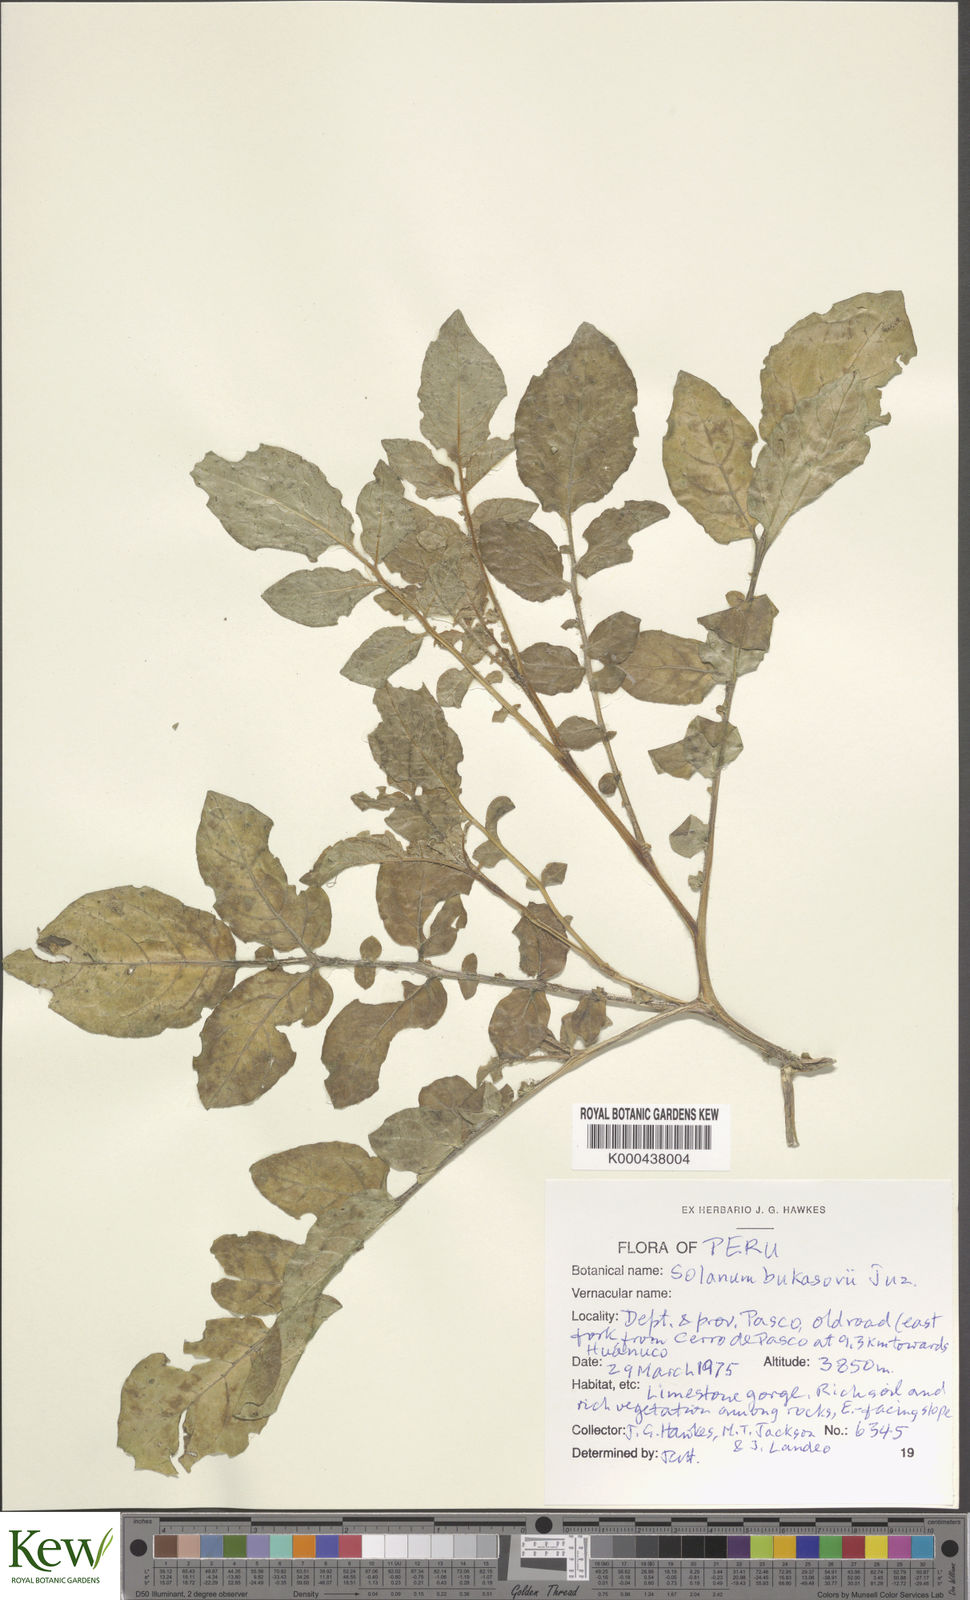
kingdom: Plantae
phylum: Tracheophyta
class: Magnoliopsida
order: Solanales
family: Solanaceae
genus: Solanum
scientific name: Solanum candolleanum
